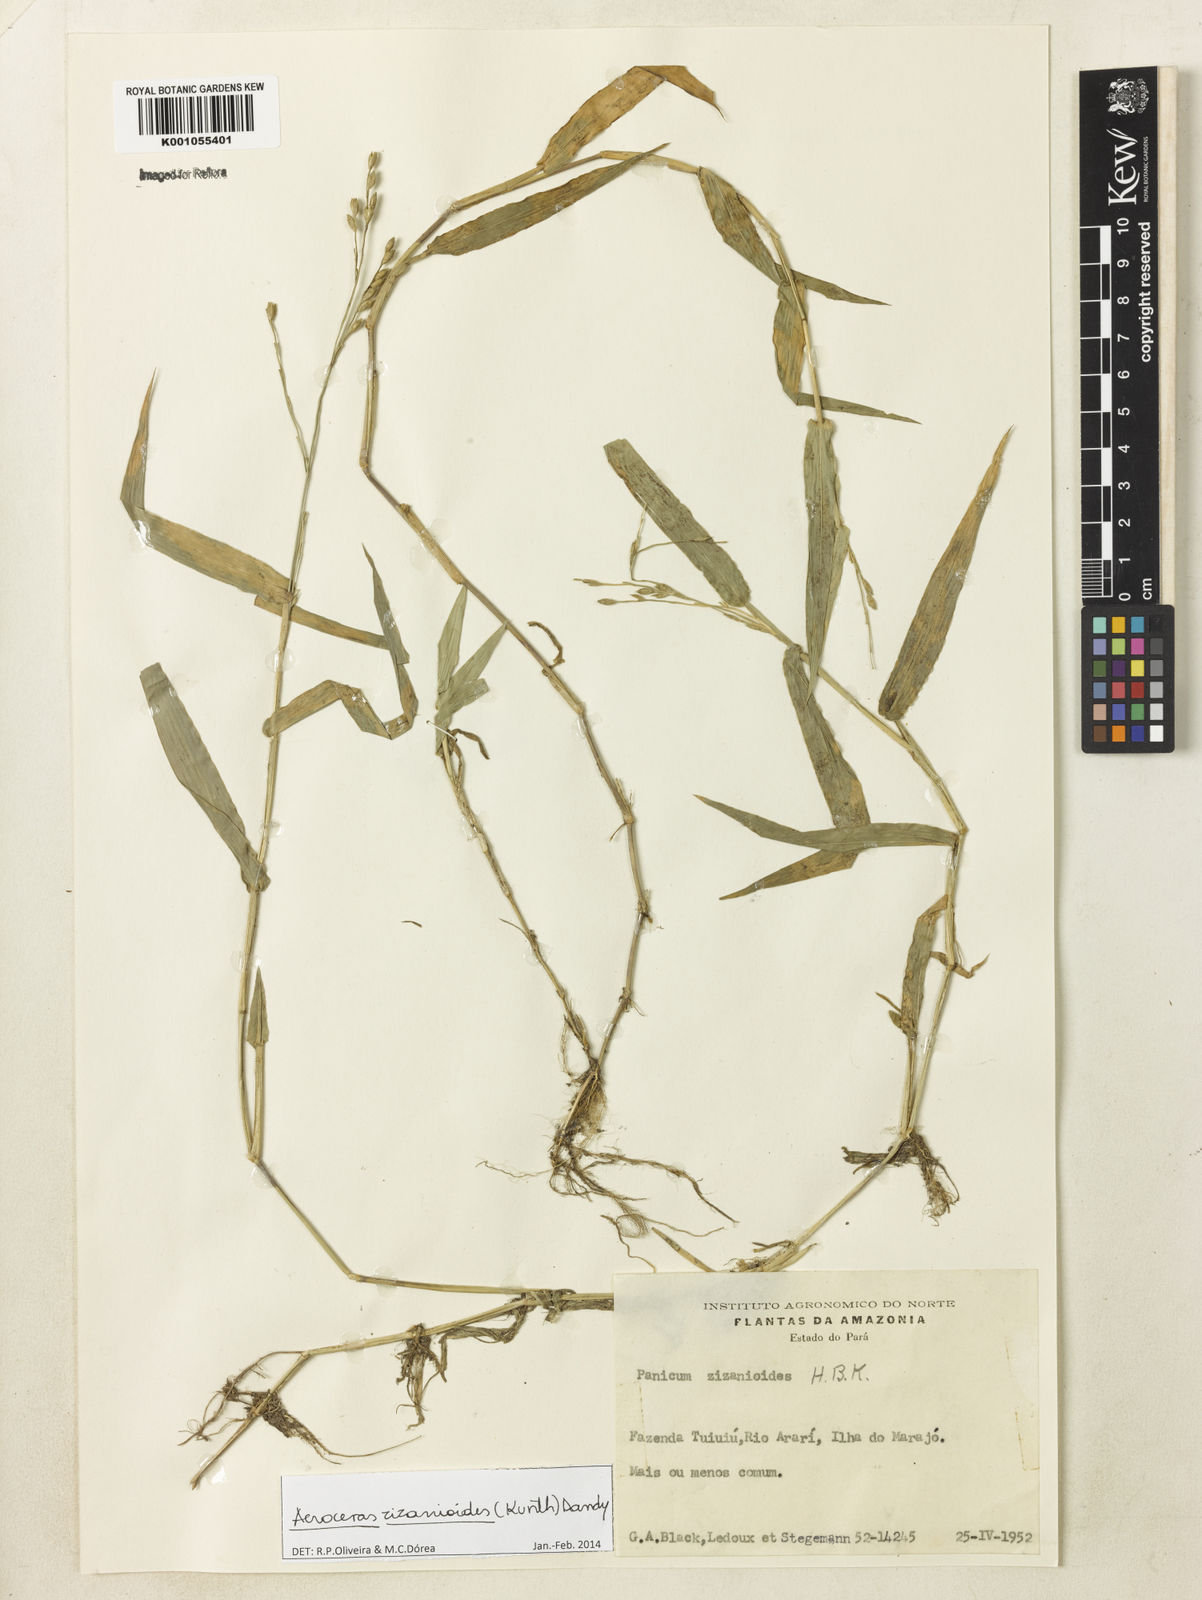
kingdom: Plantae
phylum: Tracheophyta
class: Liliopsida
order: Poales
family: Poaceae
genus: Acroceras
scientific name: Acroceras zizanioides
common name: Oat grass
